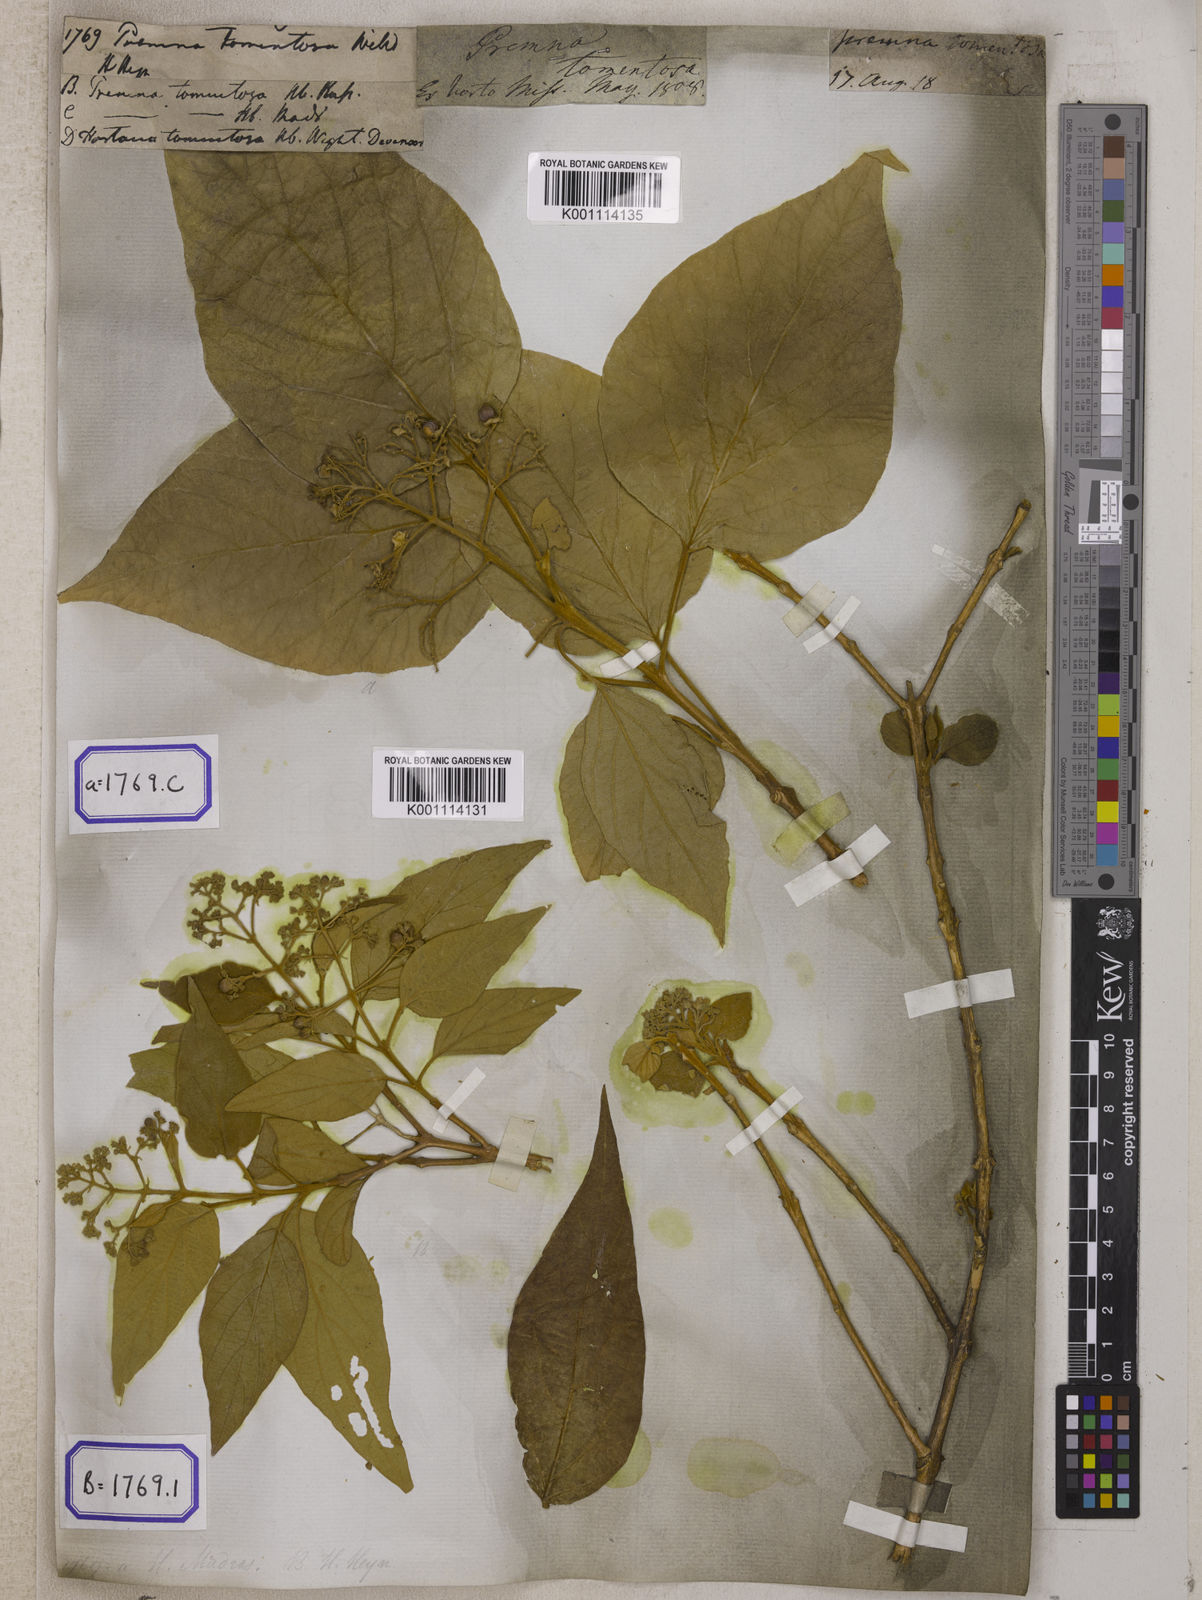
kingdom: Plantae
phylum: Tracheophyta
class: Magnoliopsida
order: Lamiales
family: Lamiaceae
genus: Premna
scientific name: Premna tomentosa
